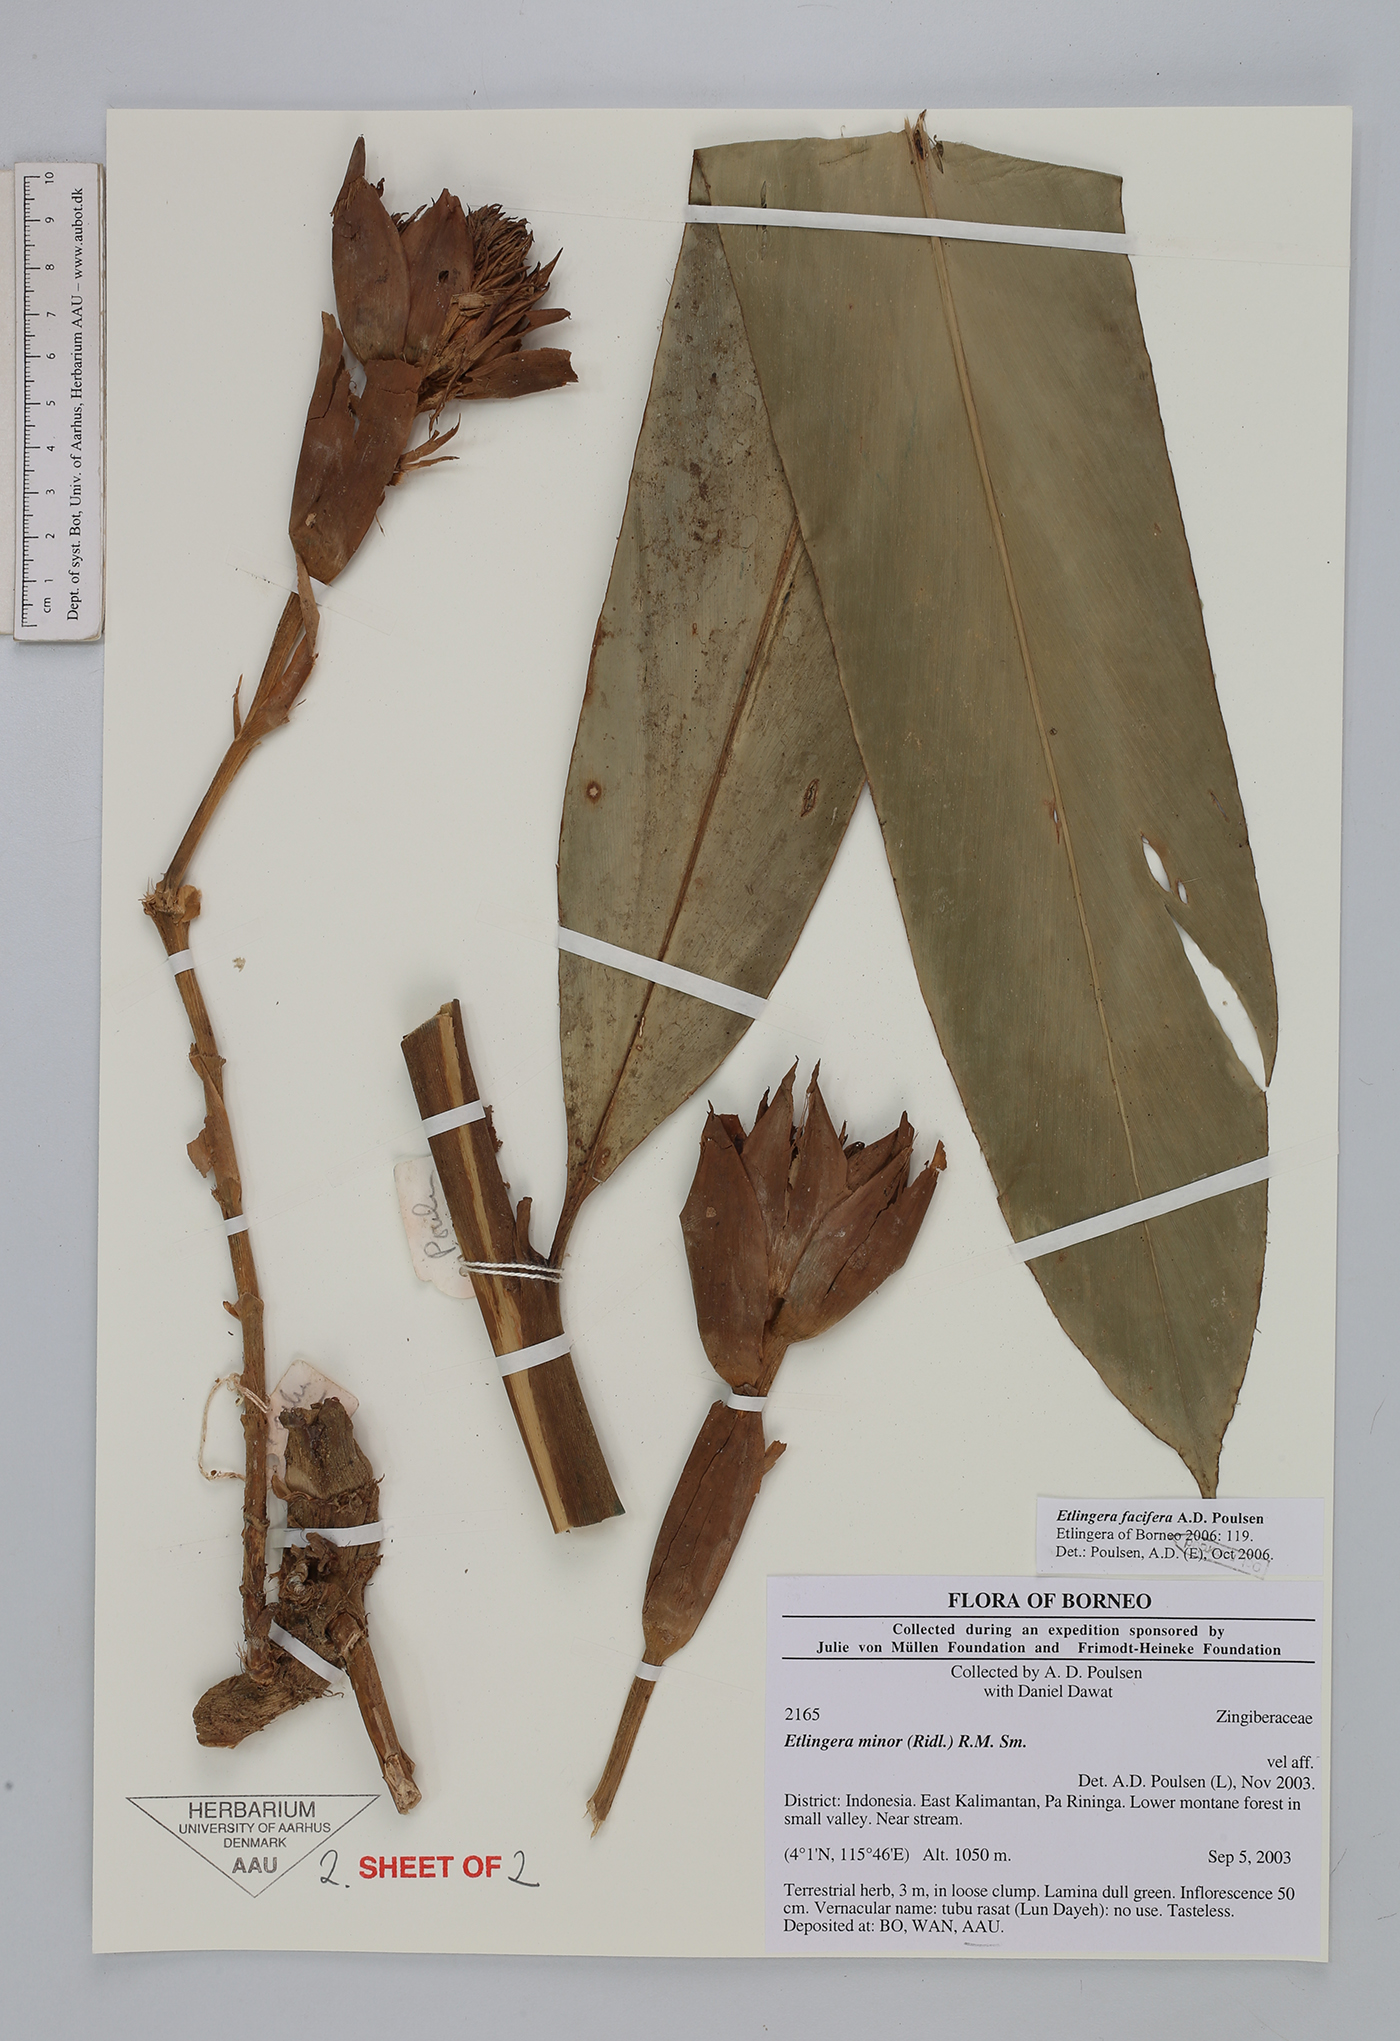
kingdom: Plantae
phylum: Tracheophyta
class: Liliopsida
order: Zingiberales
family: Zingiberaceae
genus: Etlingera
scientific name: Etlingera facifera
